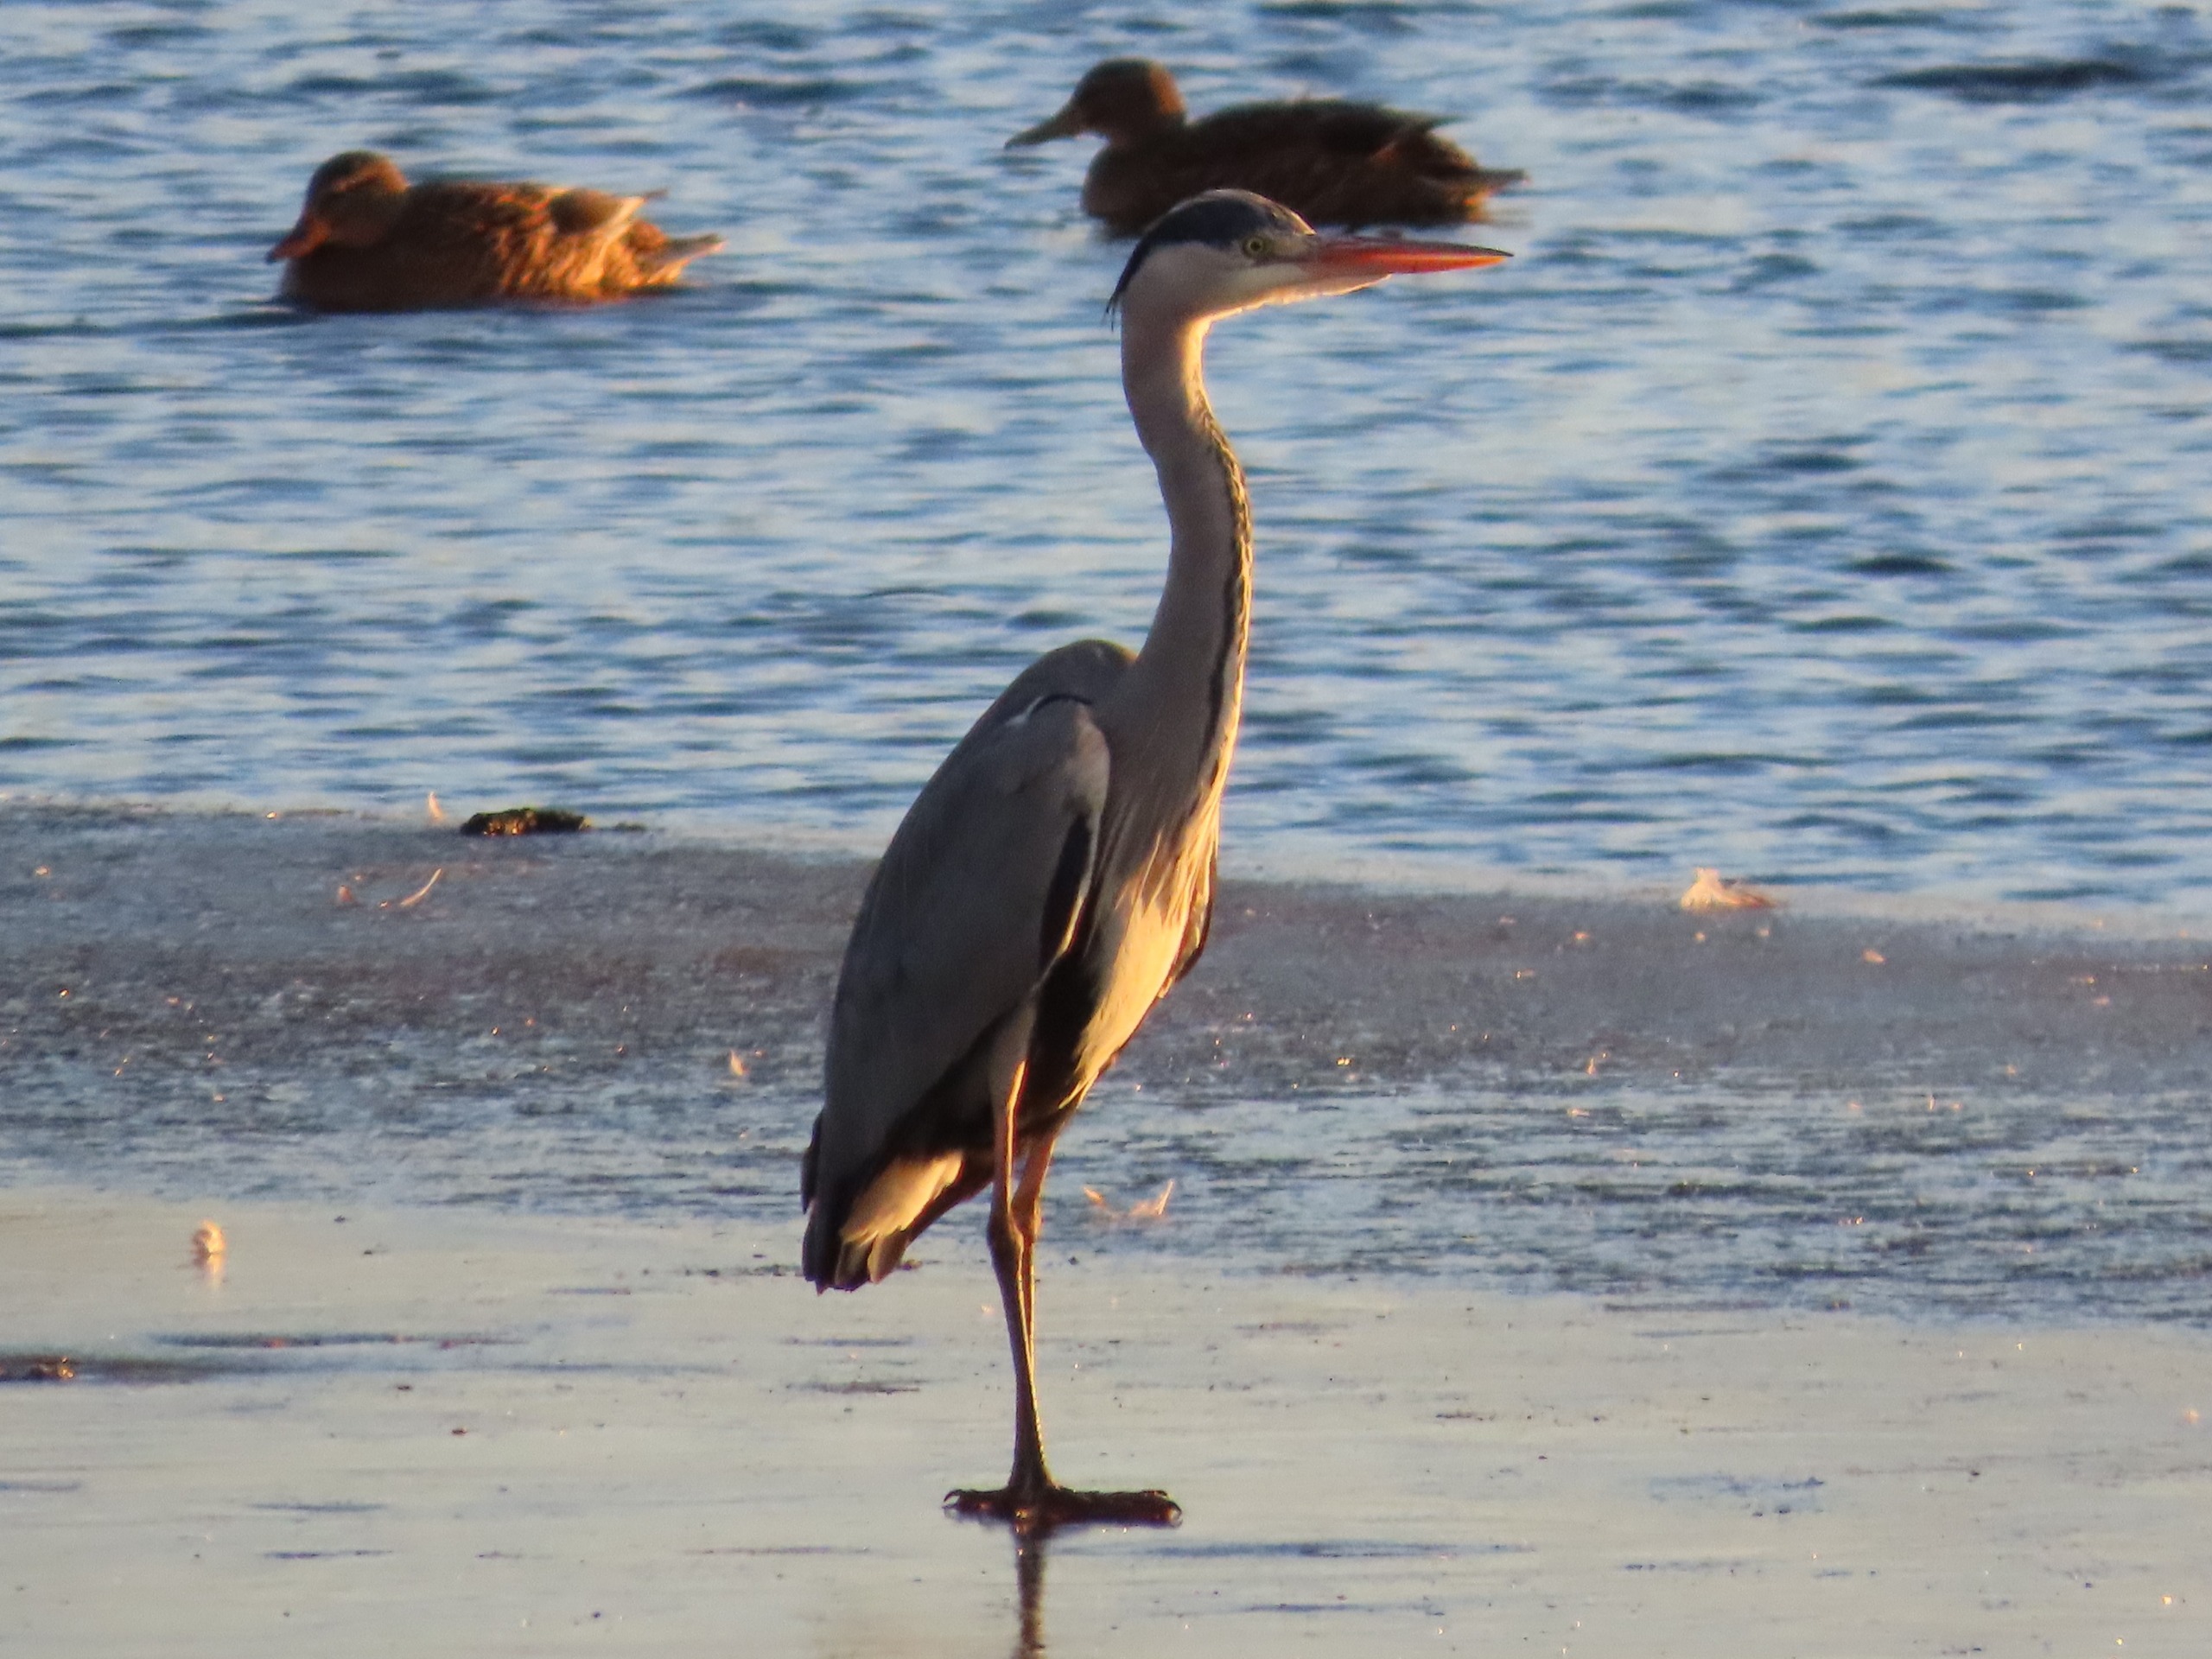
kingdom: Animalia
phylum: Chordata
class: Aves
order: Pelecaniformes
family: Ardeidae
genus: Ardea
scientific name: Ardea cinerea
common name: Fiskehejre
